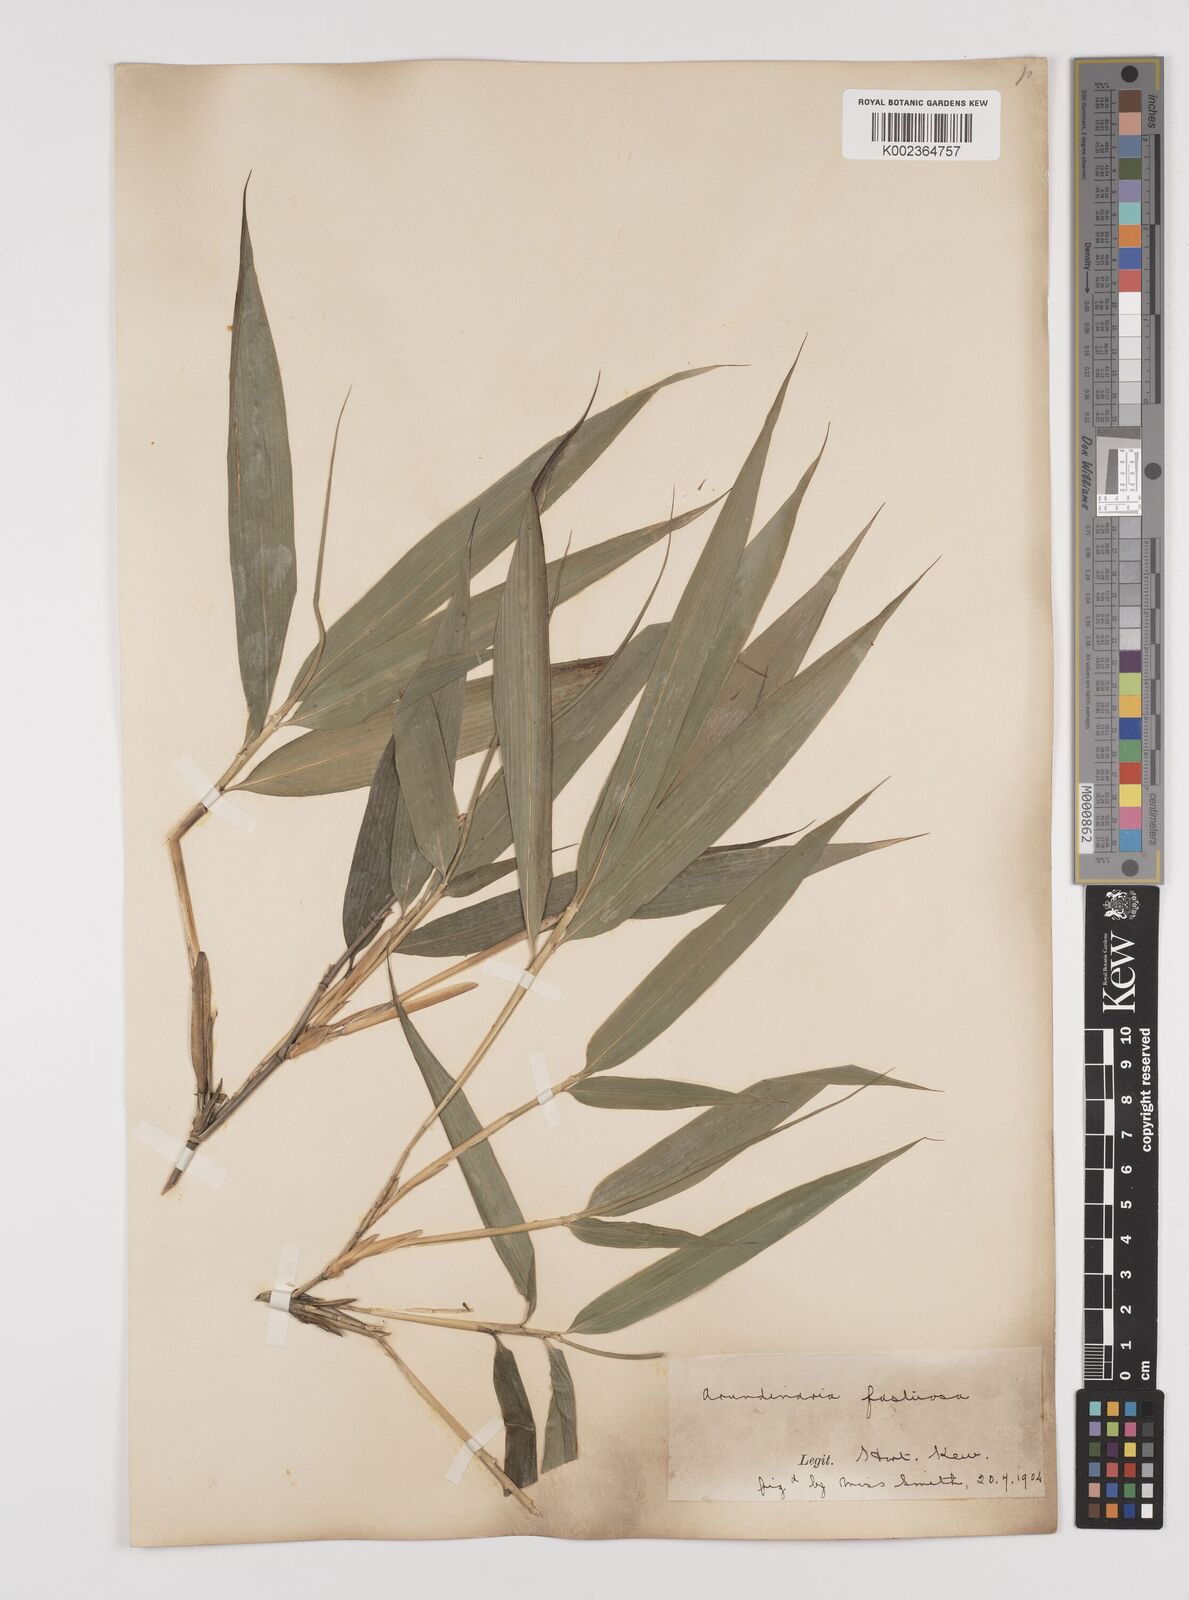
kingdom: Plantae
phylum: Tracheophyta
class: Liliopsida
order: Poales
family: Poaceae
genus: Semiarundinaria
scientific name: Semiarundinaria fastuosa
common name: Narihira bamboo
